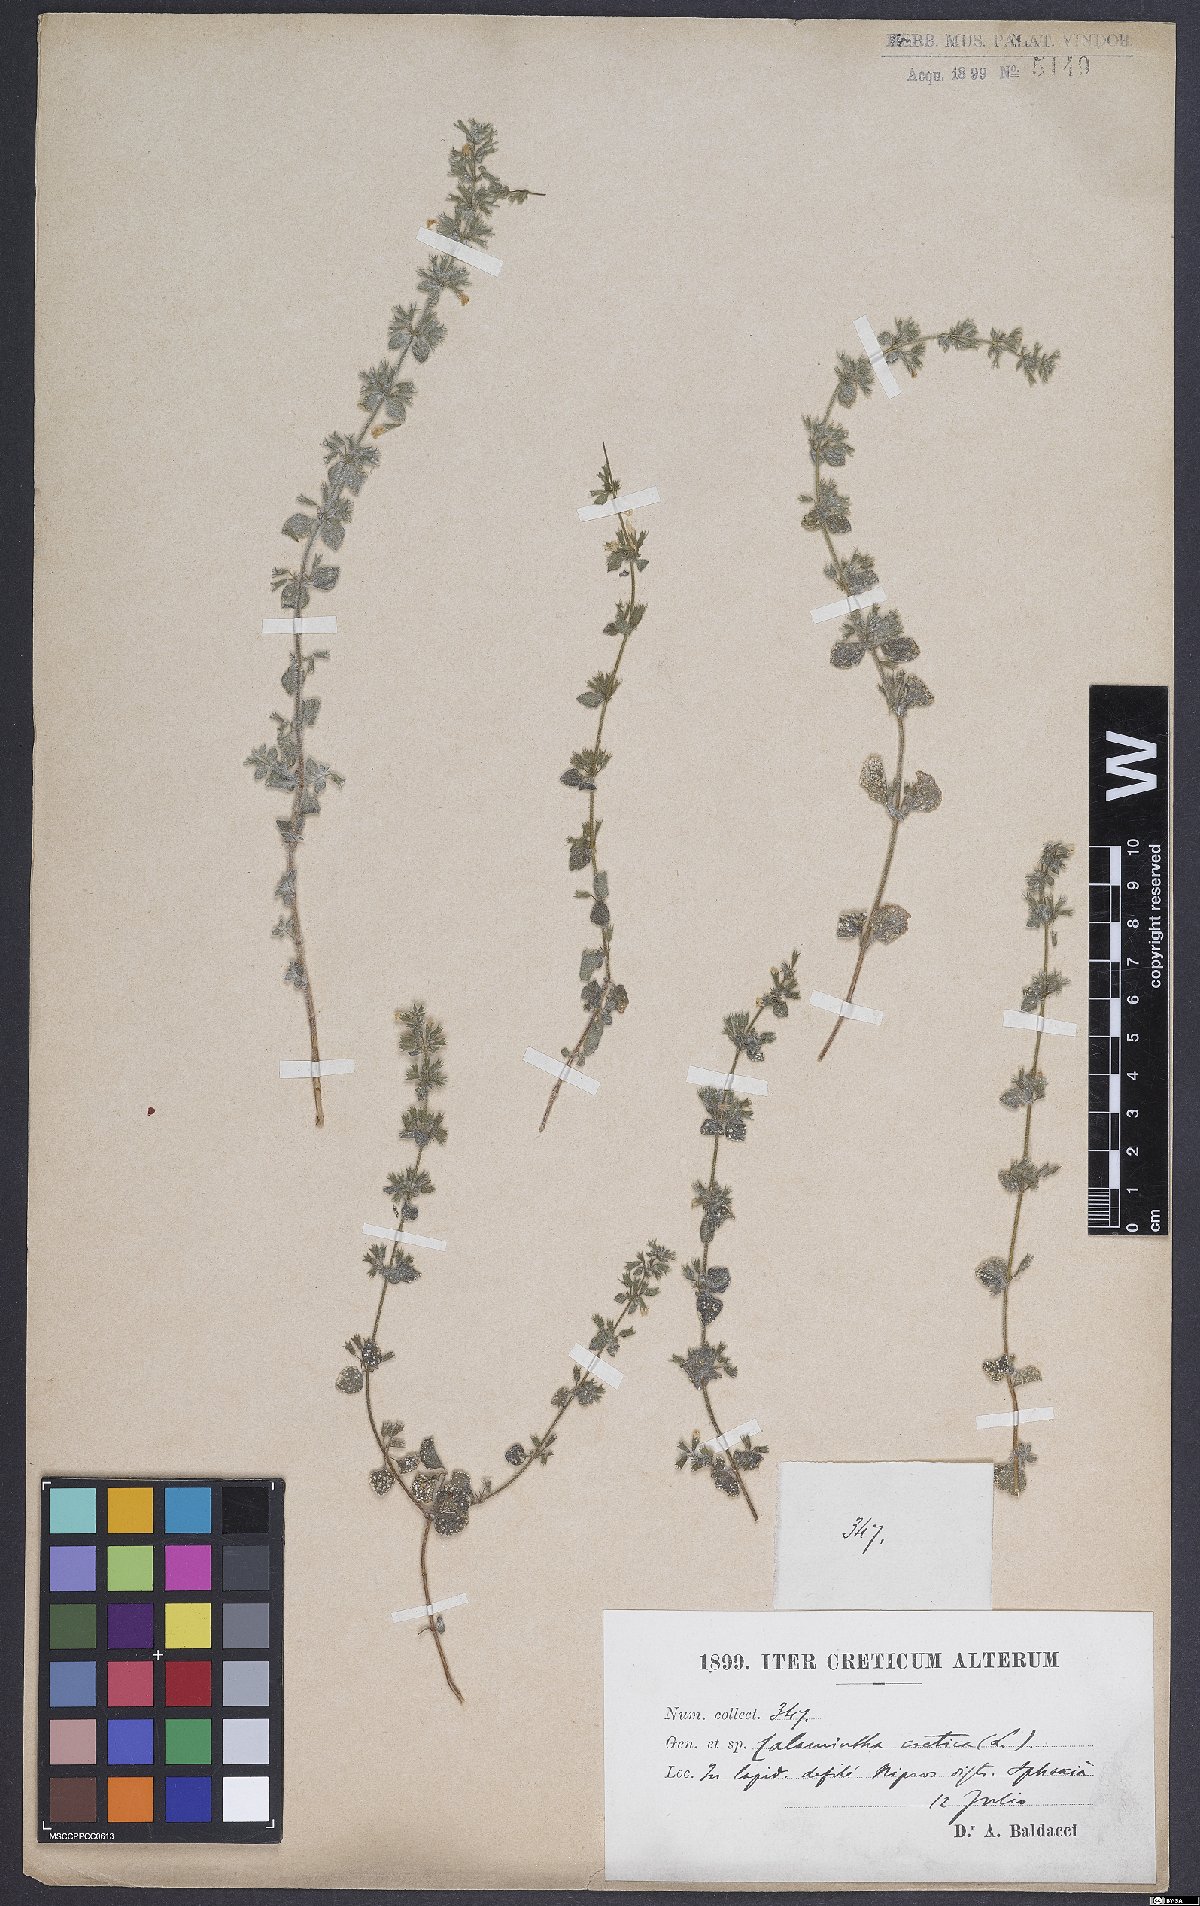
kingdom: Plantae
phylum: Tracheophyta
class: Magnoliopsida
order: Lamiales
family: Lamiaceae
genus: Clinopodium
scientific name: Clinopodium creticum
